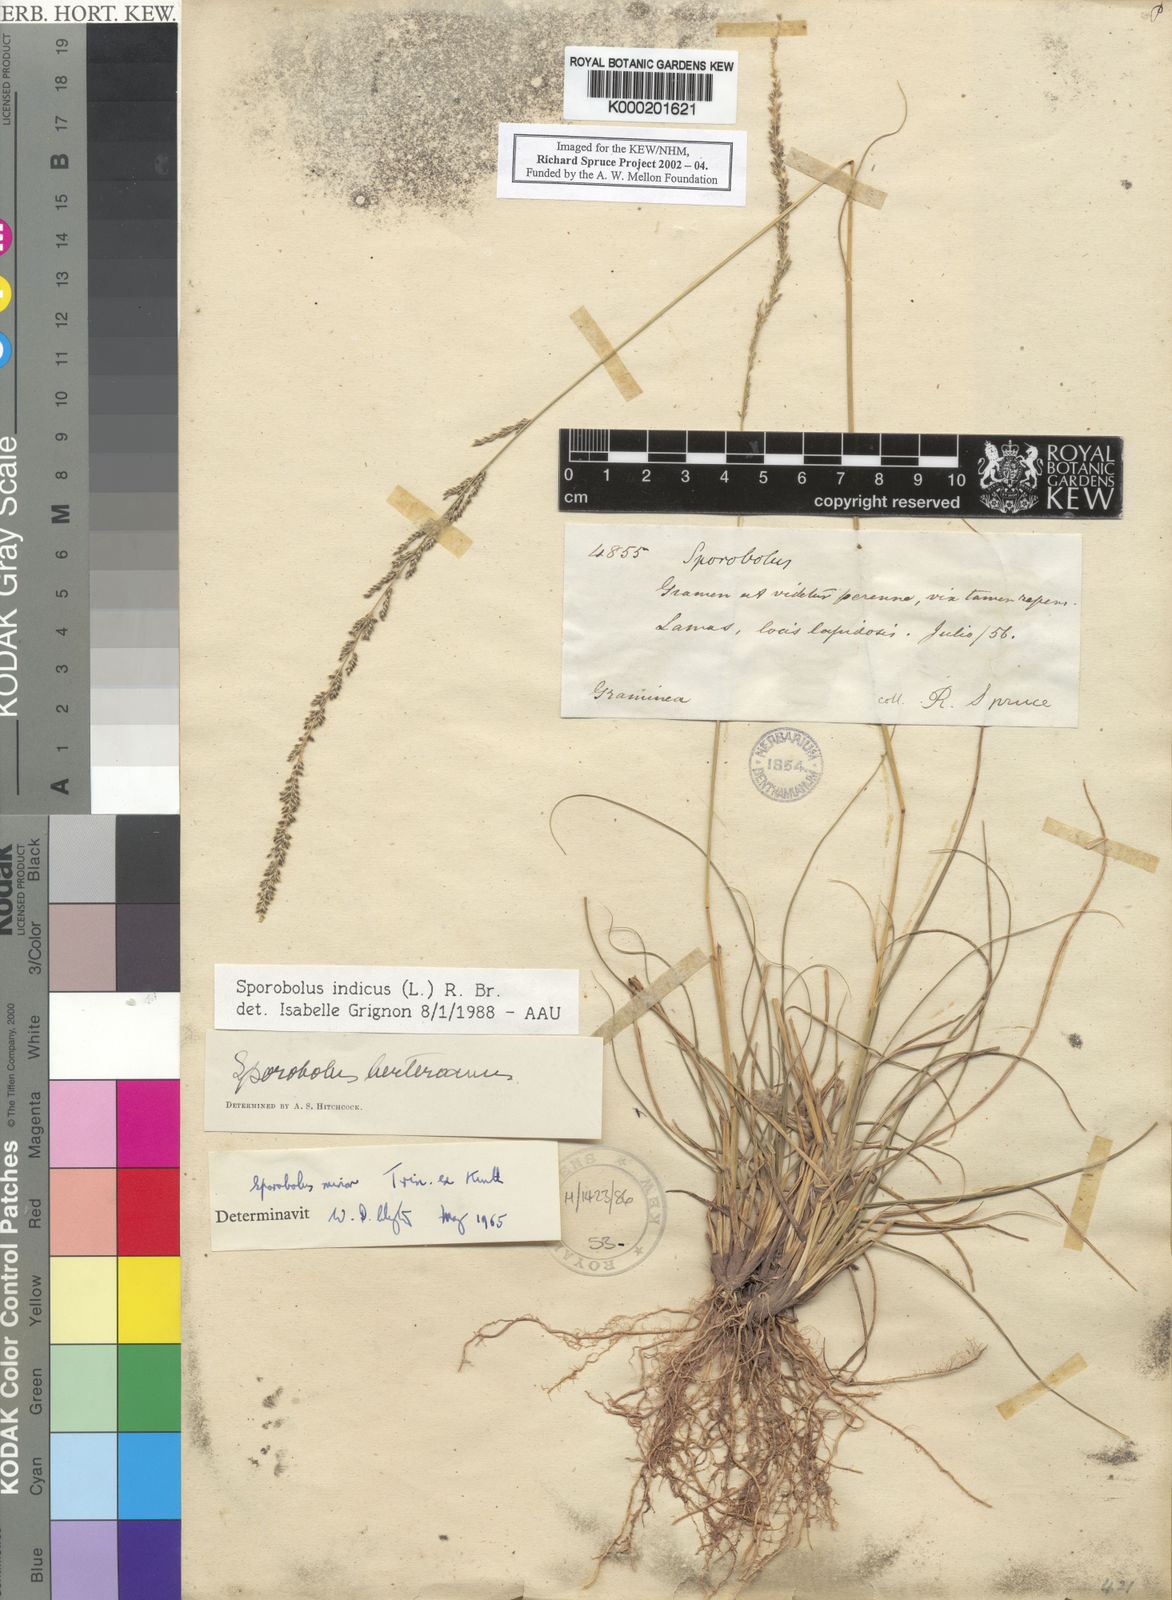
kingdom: Plantae
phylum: Tracheophyta
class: Liliopsida
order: Poales
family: Poaceae
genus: Sporobolus
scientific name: Sporobolus indicus
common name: Smut grass
